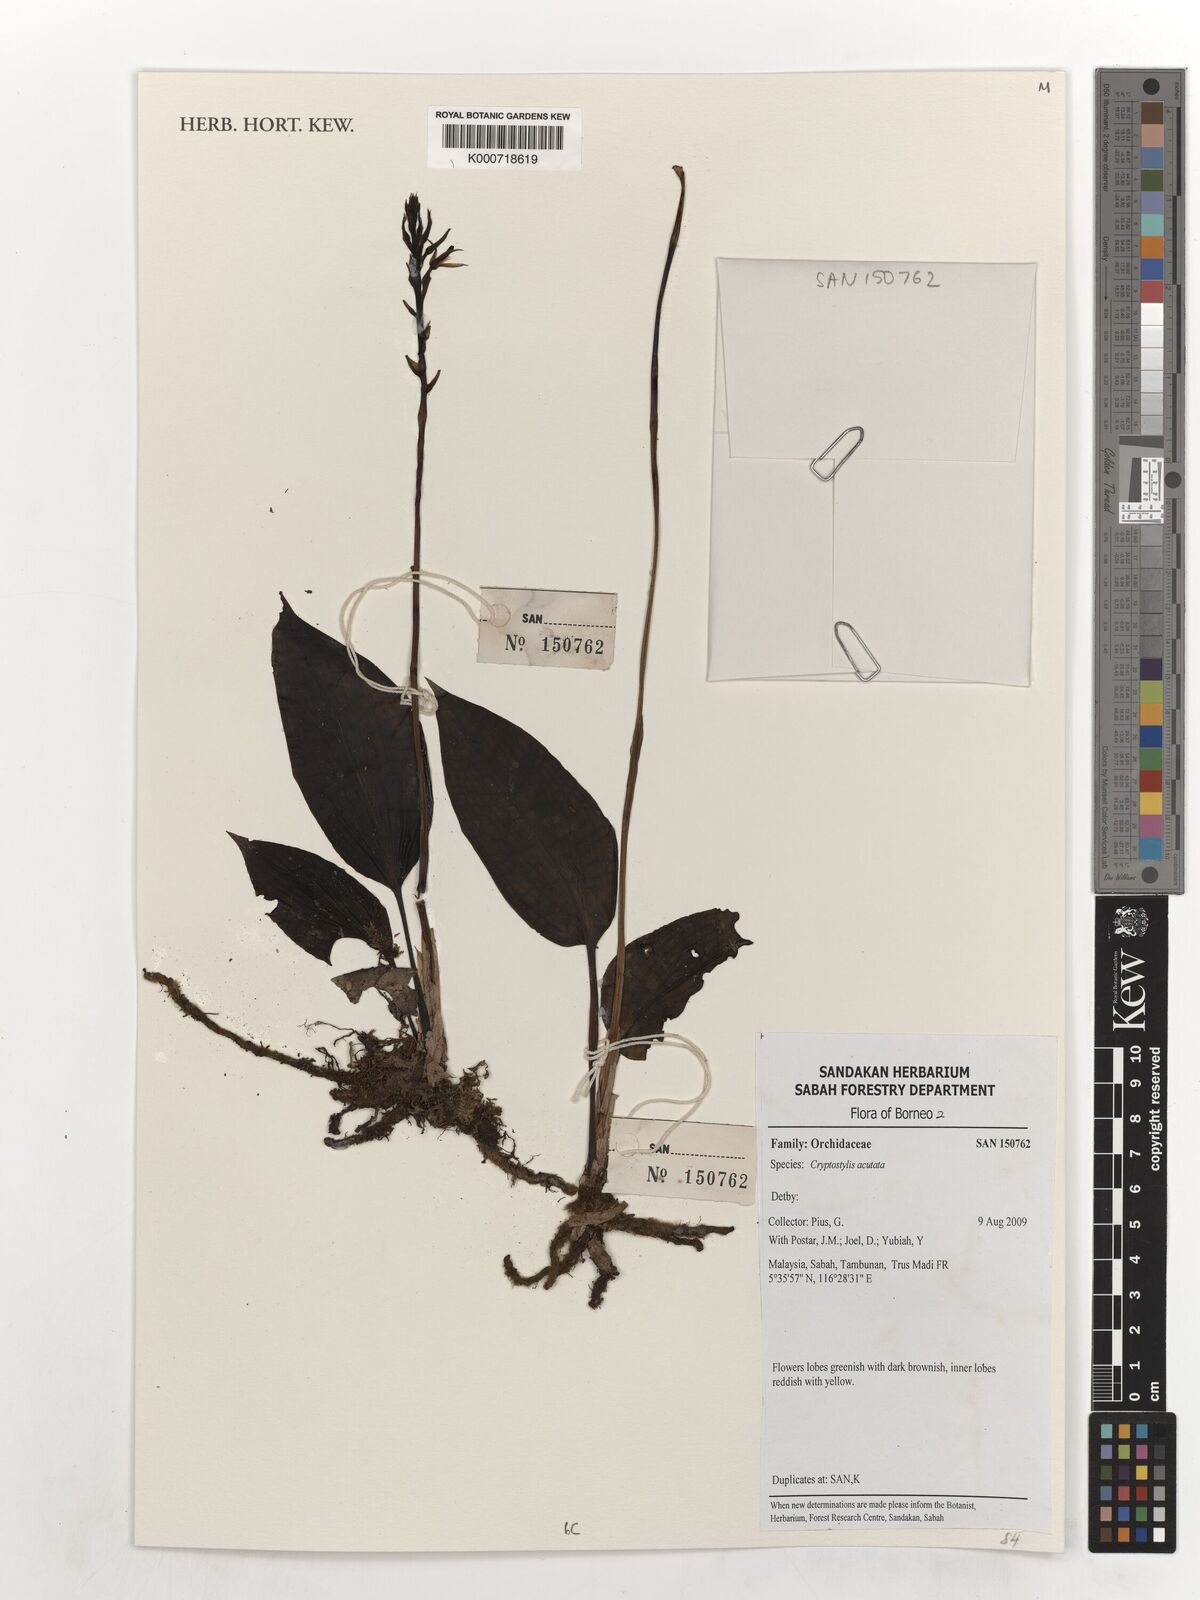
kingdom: Plantae
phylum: Tracheophyta
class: Liliopsida
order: Asparagales
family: Orchidaceae
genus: Cryptostylis
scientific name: Cryptostylis acutata
